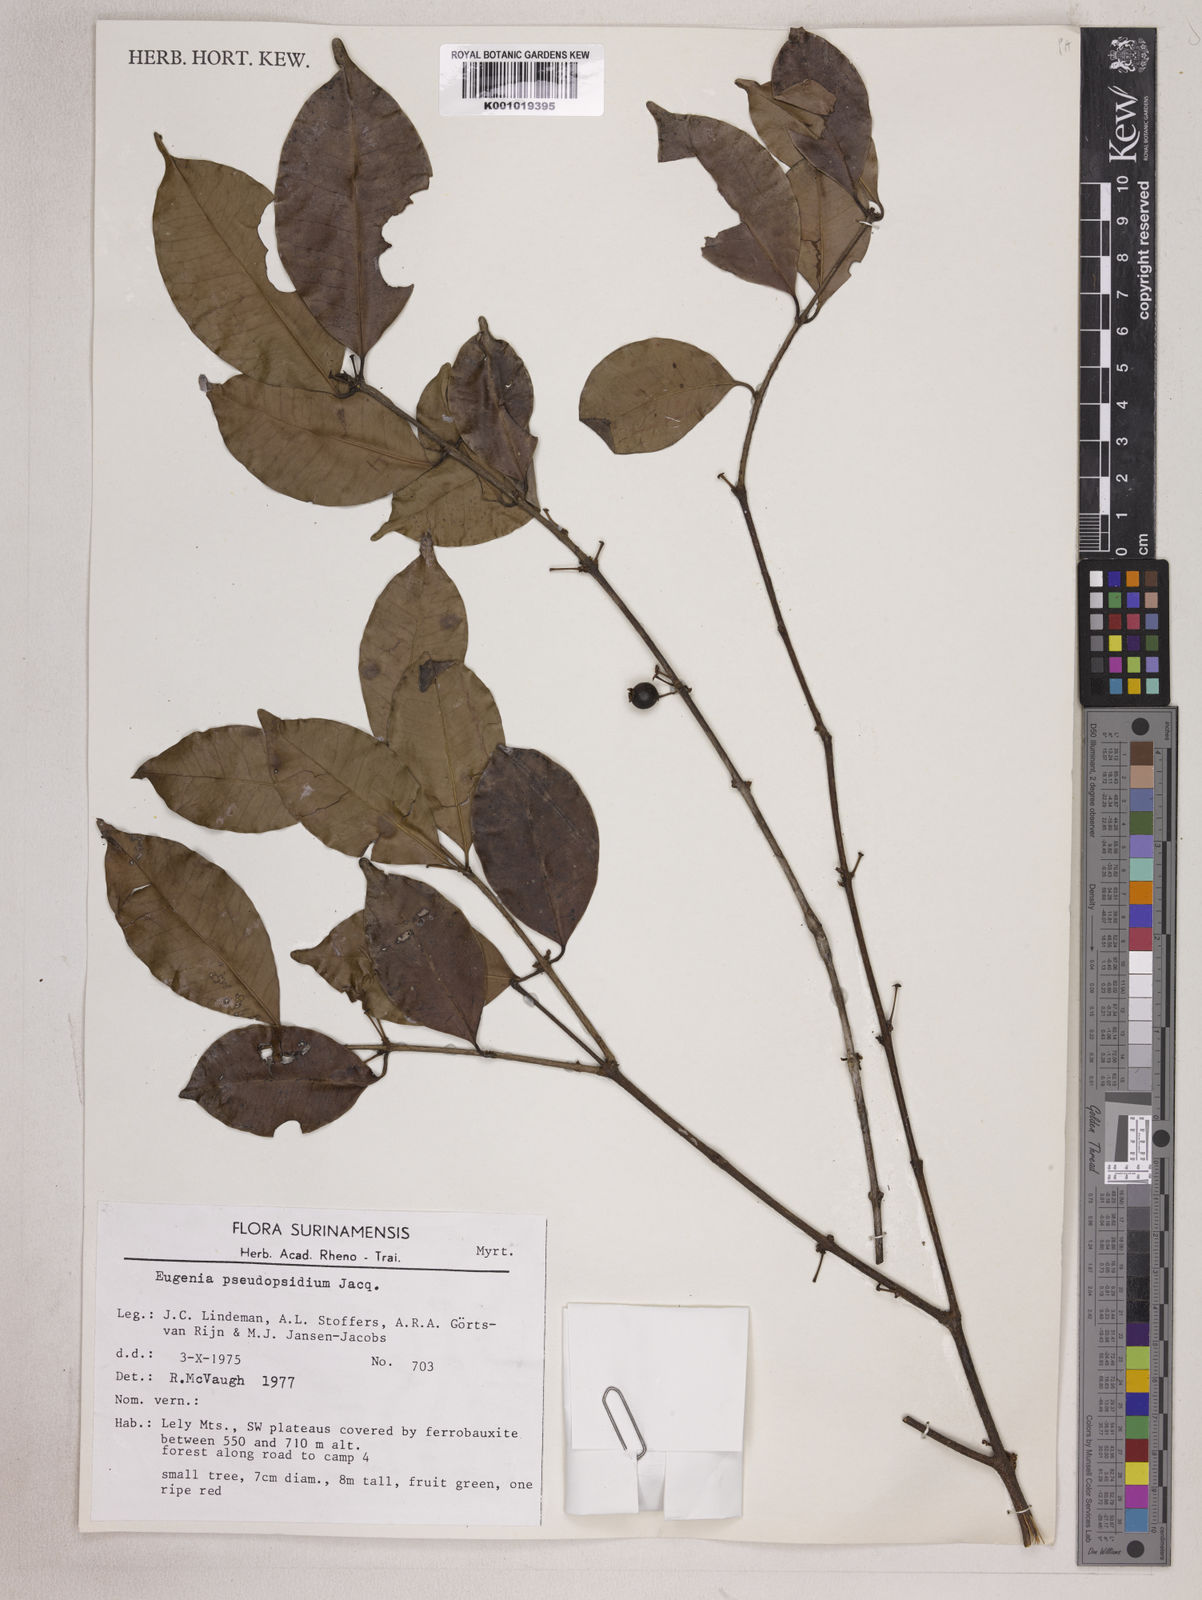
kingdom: Plantae
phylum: Tracheophyta
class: Magnoliopsida
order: Myrtales
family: Myrtaceae
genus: Eugenia
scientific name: Eugenia pseudopsidium
